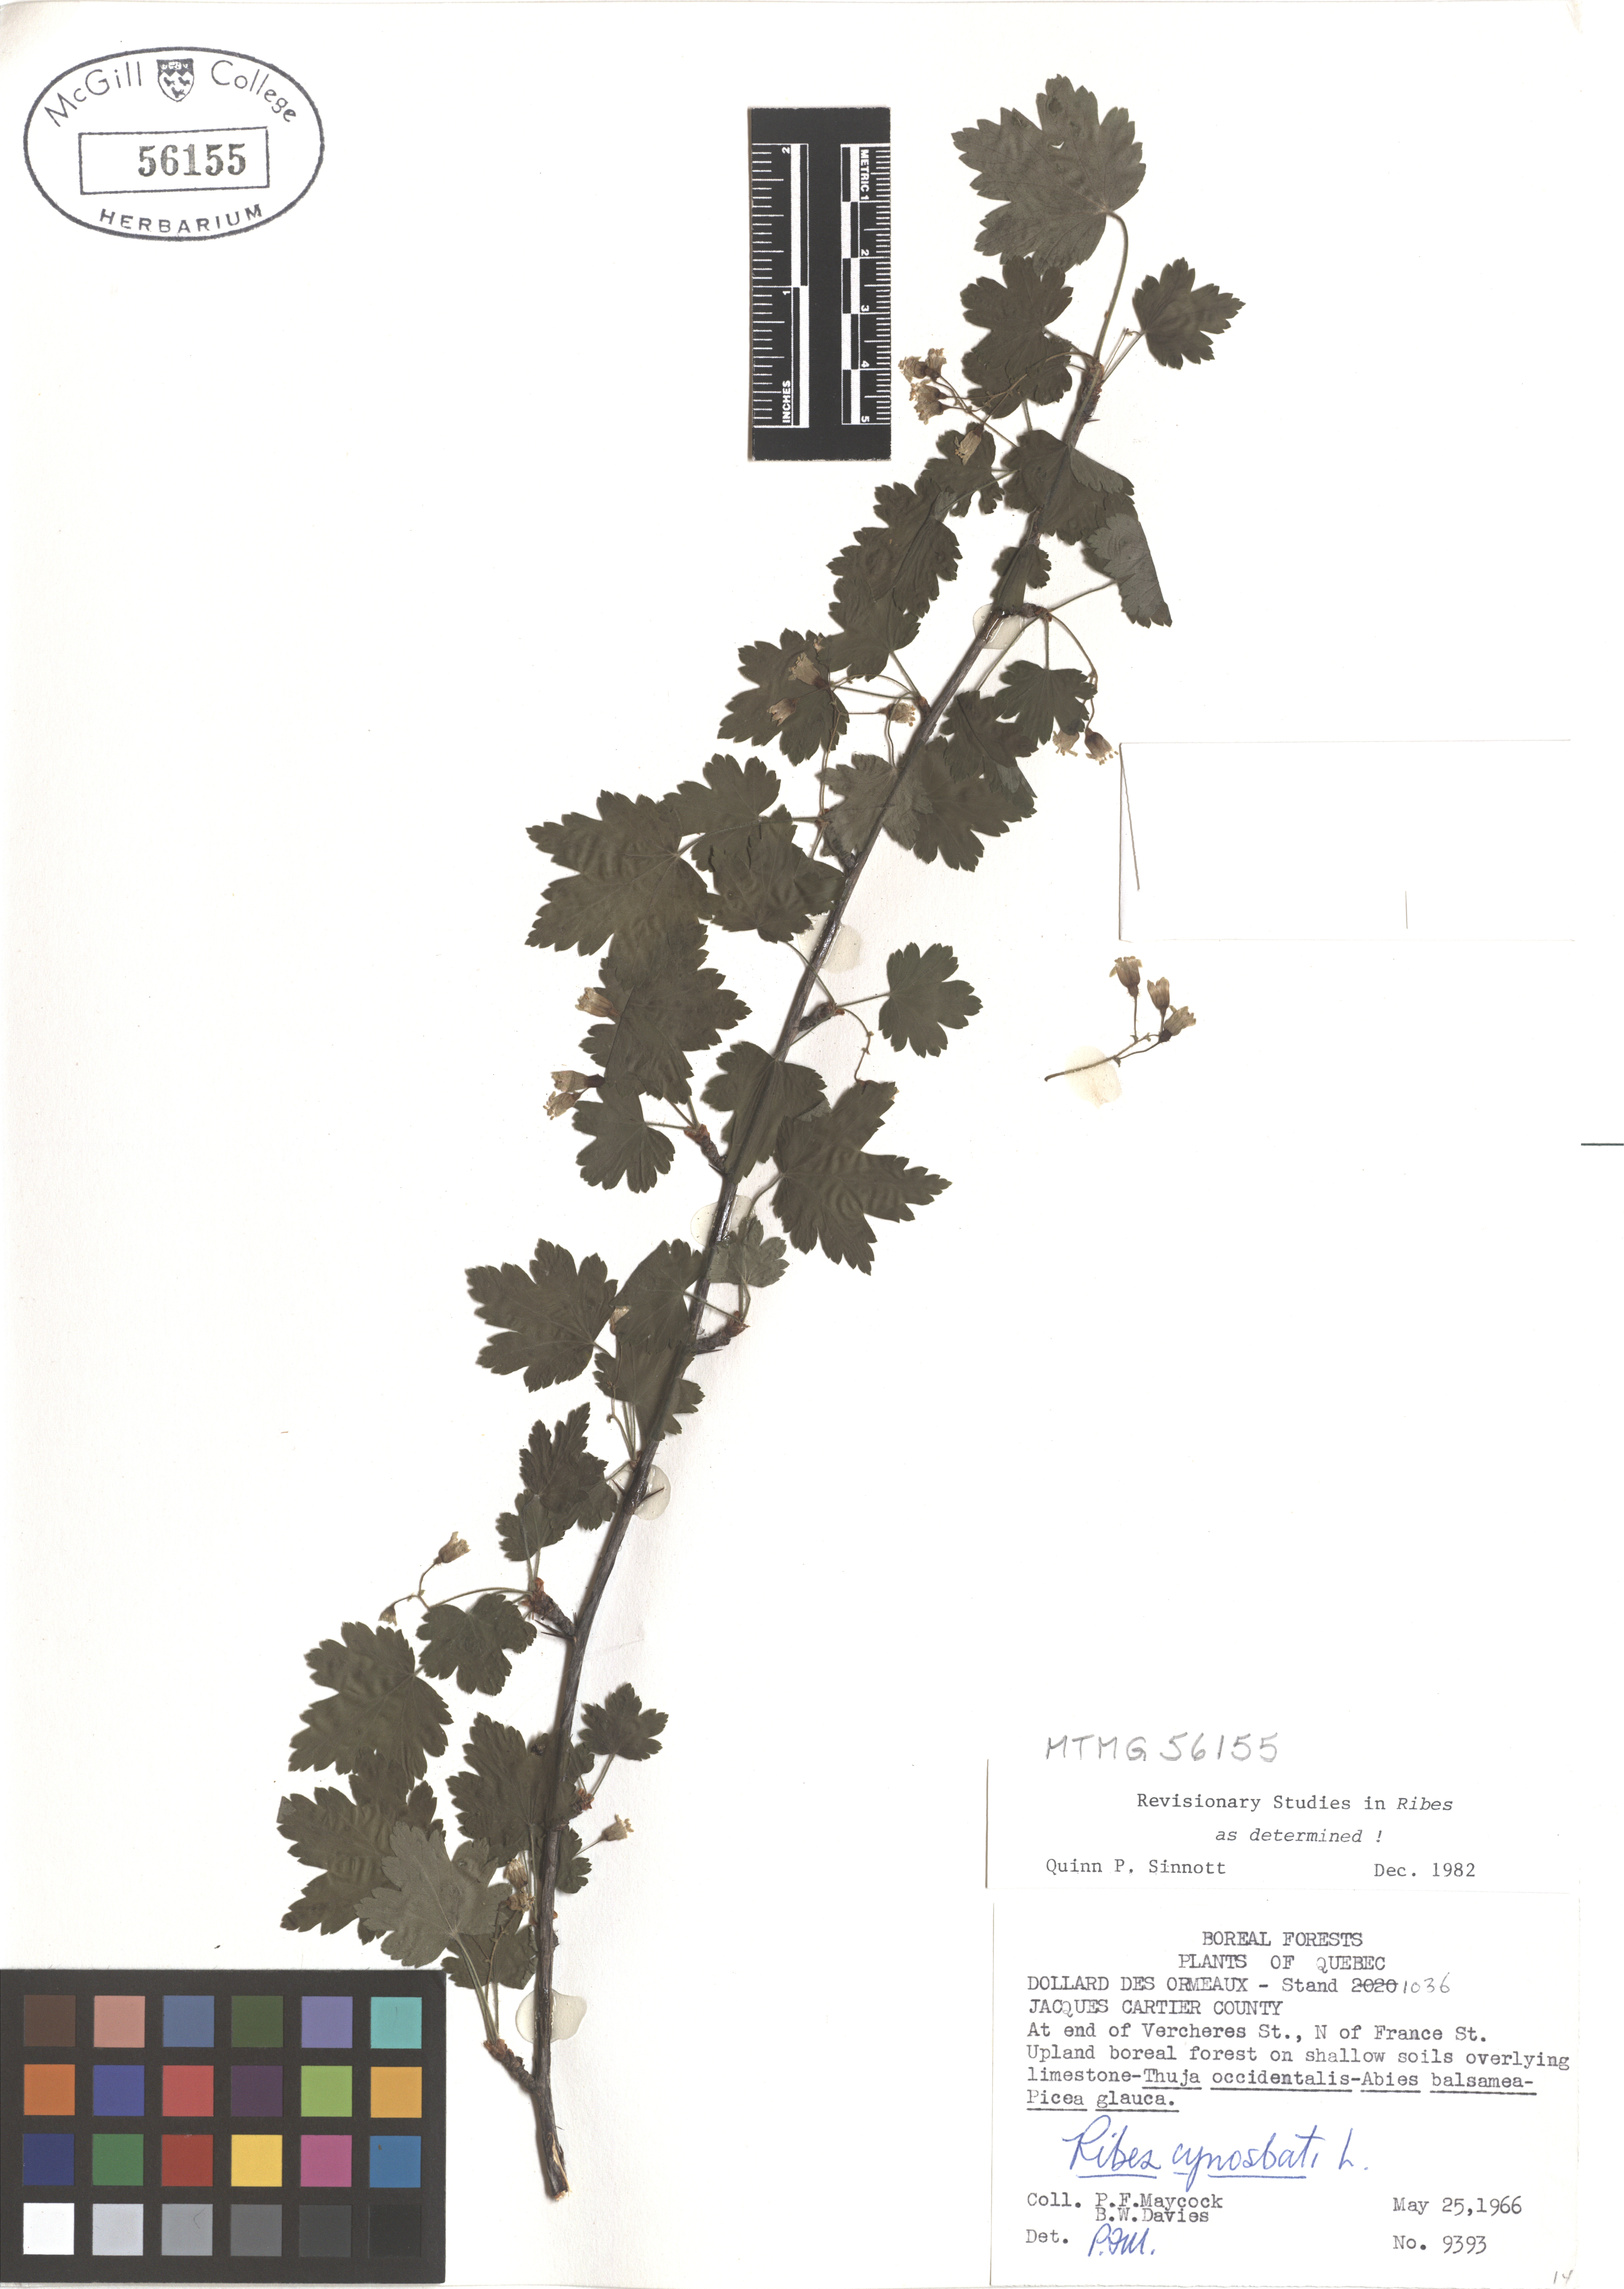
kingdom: Plantae
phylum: Tracheophyta
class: Magnoliopsida
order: Saxifragales
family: Grossulariaceae
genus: Ribes
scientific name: Ribes cynosbati
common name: American gooseberry
